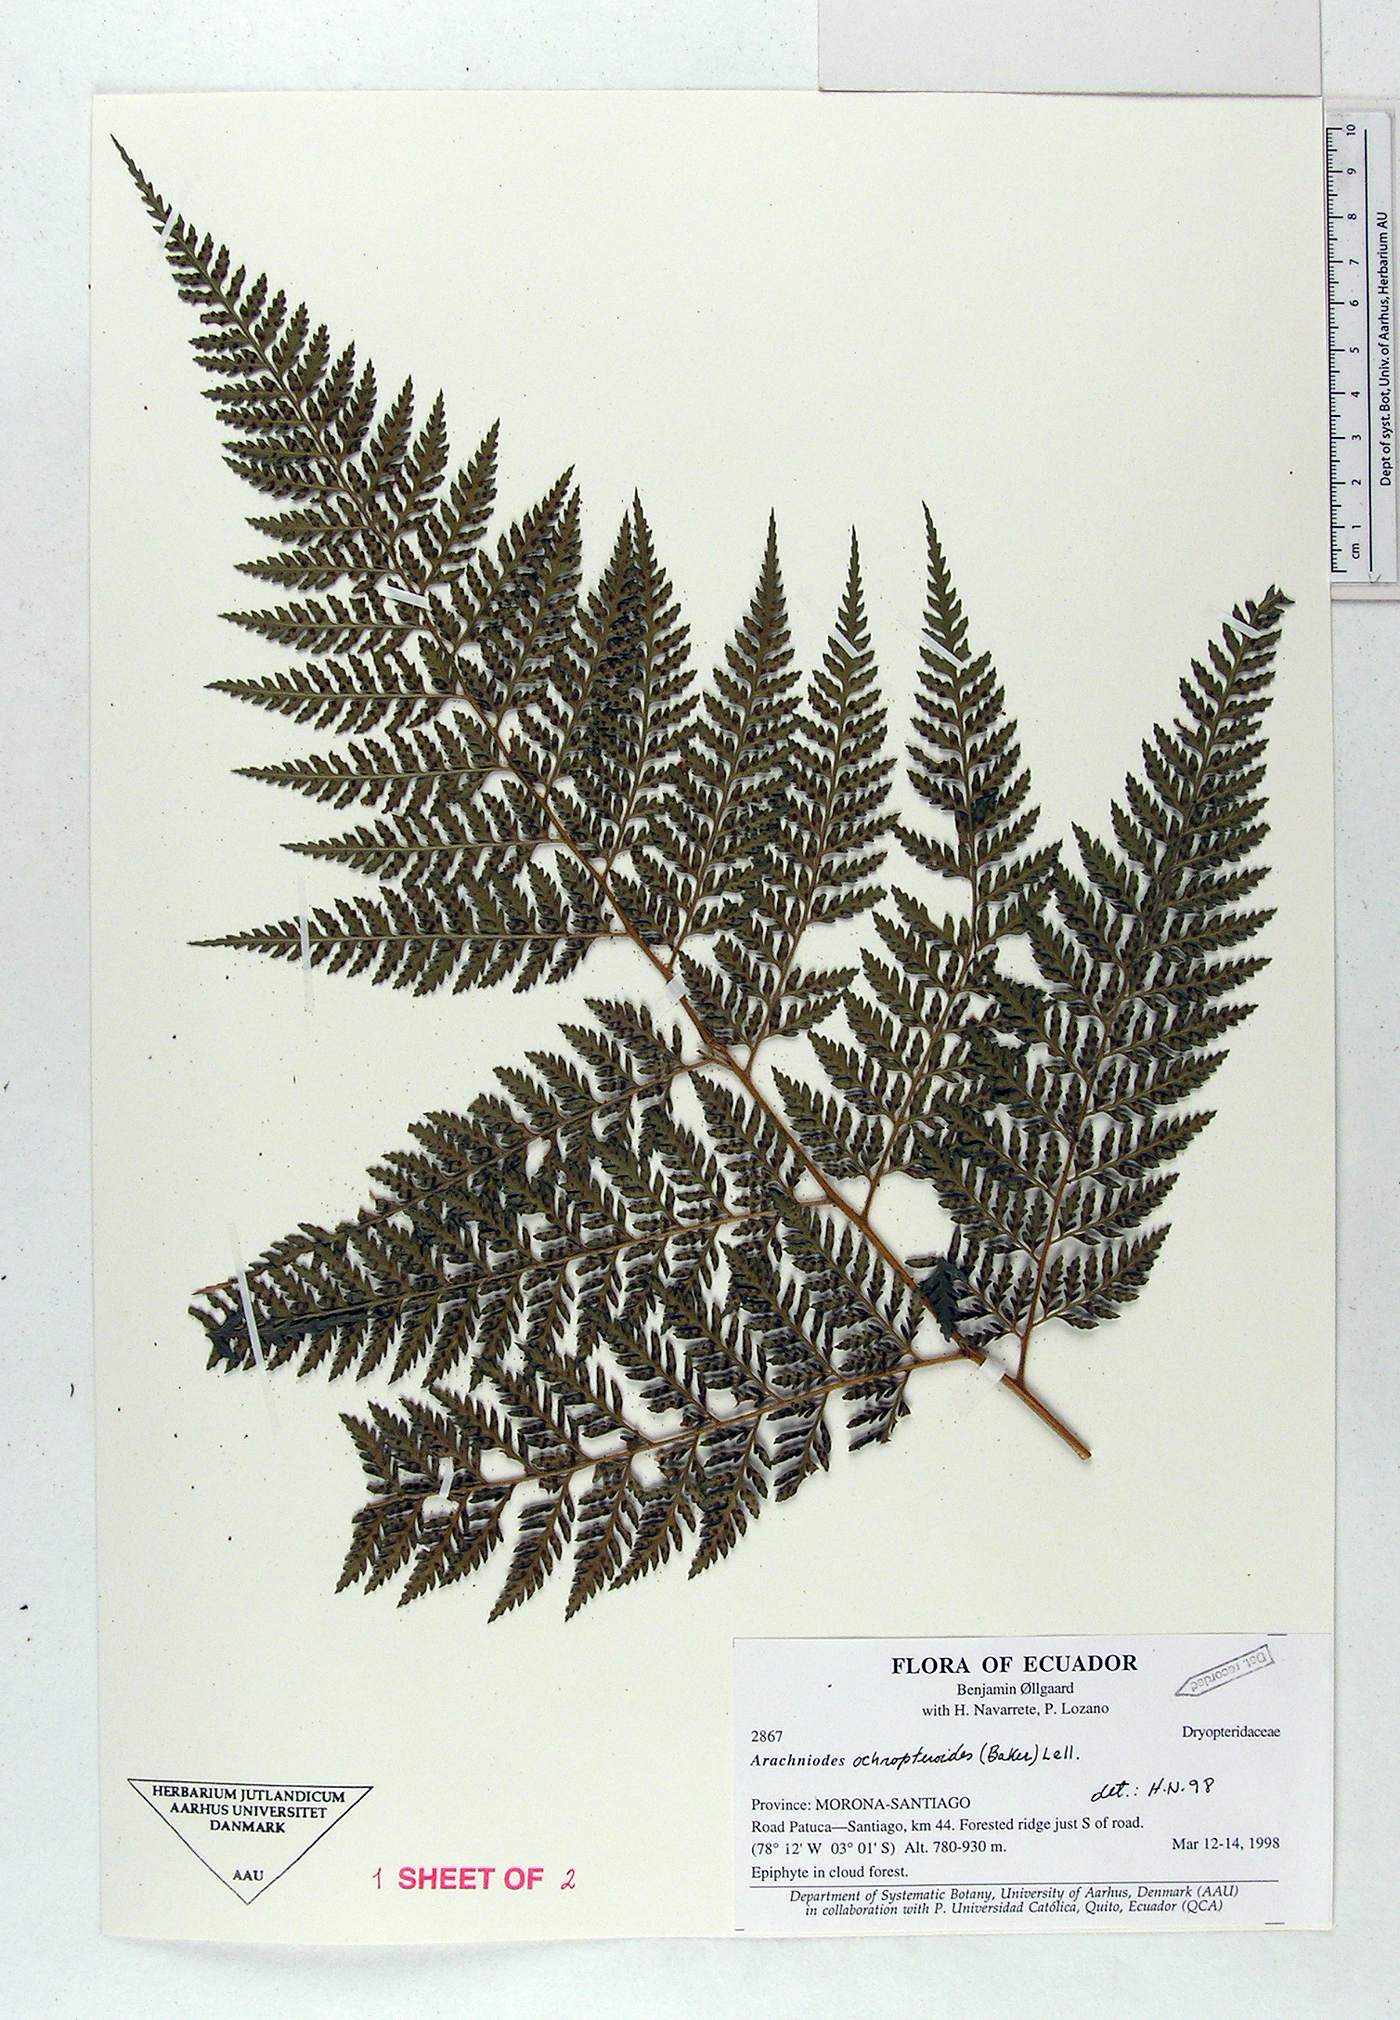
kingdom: Plantae
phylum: Tracheophyta
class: Polypodiopsida
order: Polypodiales
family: Dryopteridaceae
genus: Olfersia
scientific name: Olfersia ochropteroides
